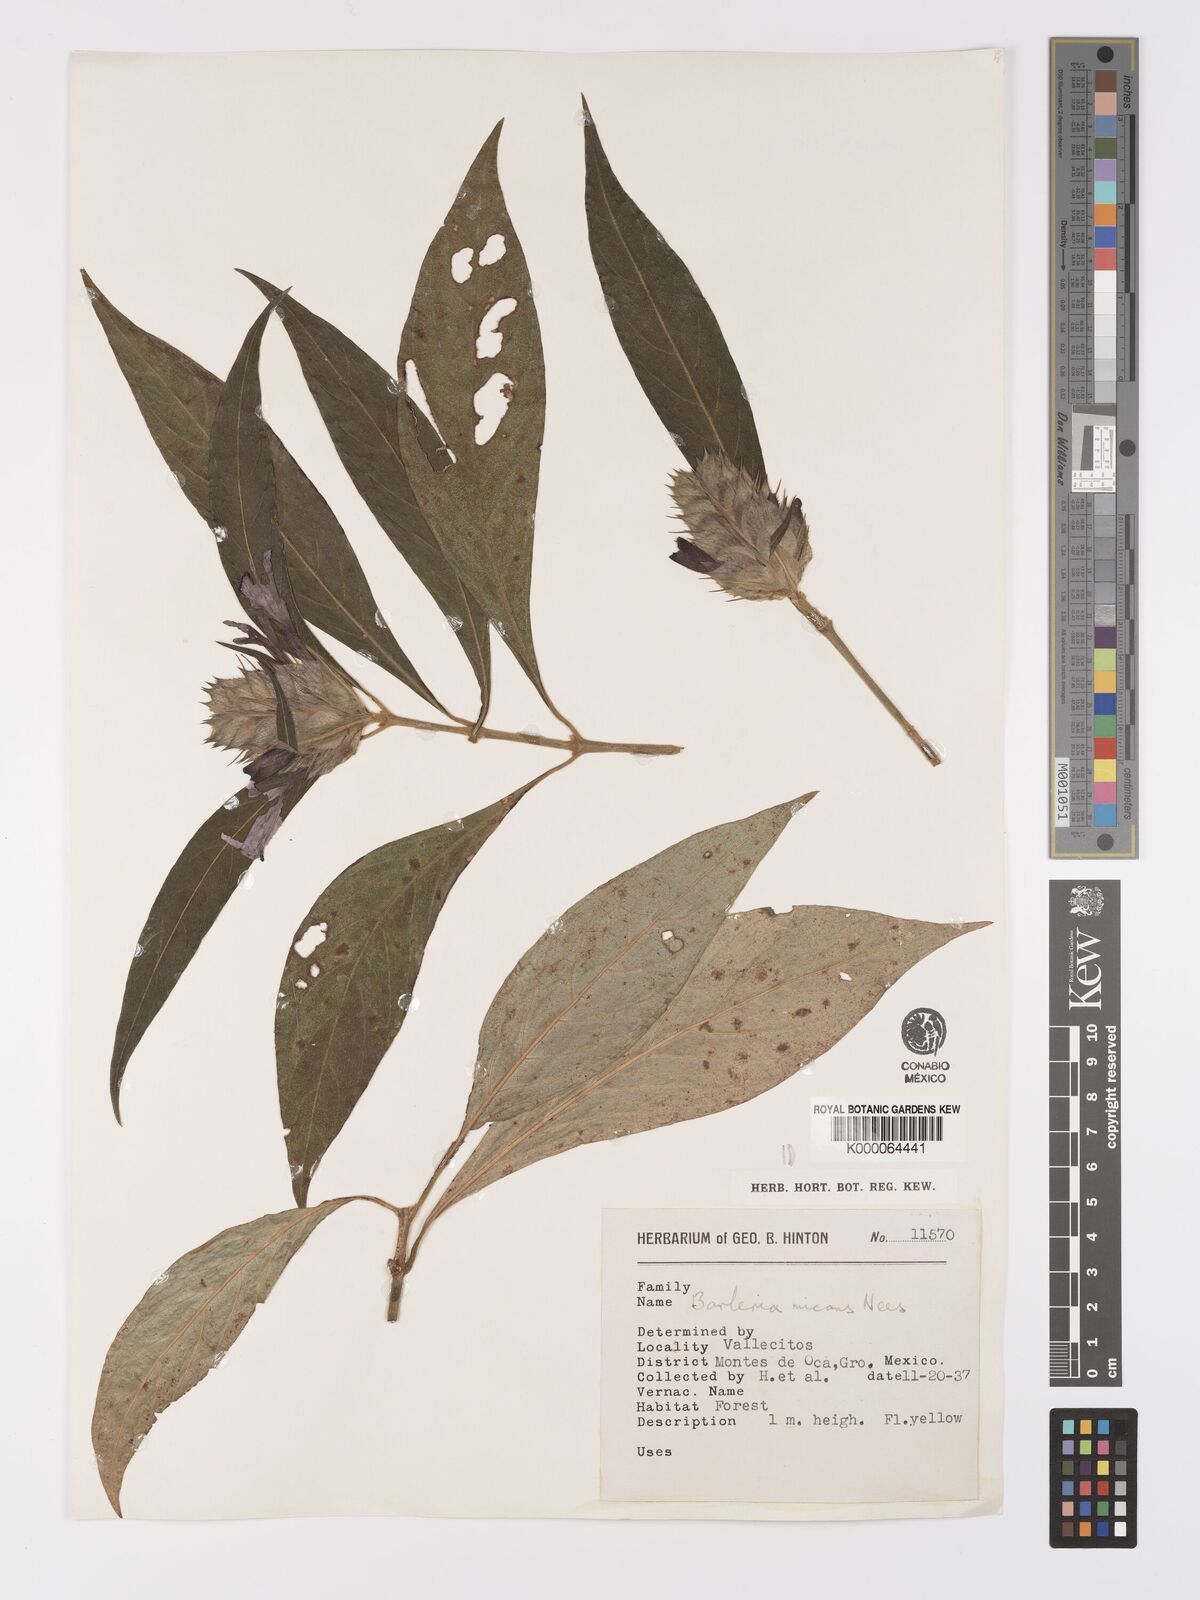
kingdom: Plantae
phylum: Tracheophyta
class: Magnoliopsida
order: Lamiales
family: Acanthaceae
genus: Barleria
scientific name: Barleria oenotheroides
